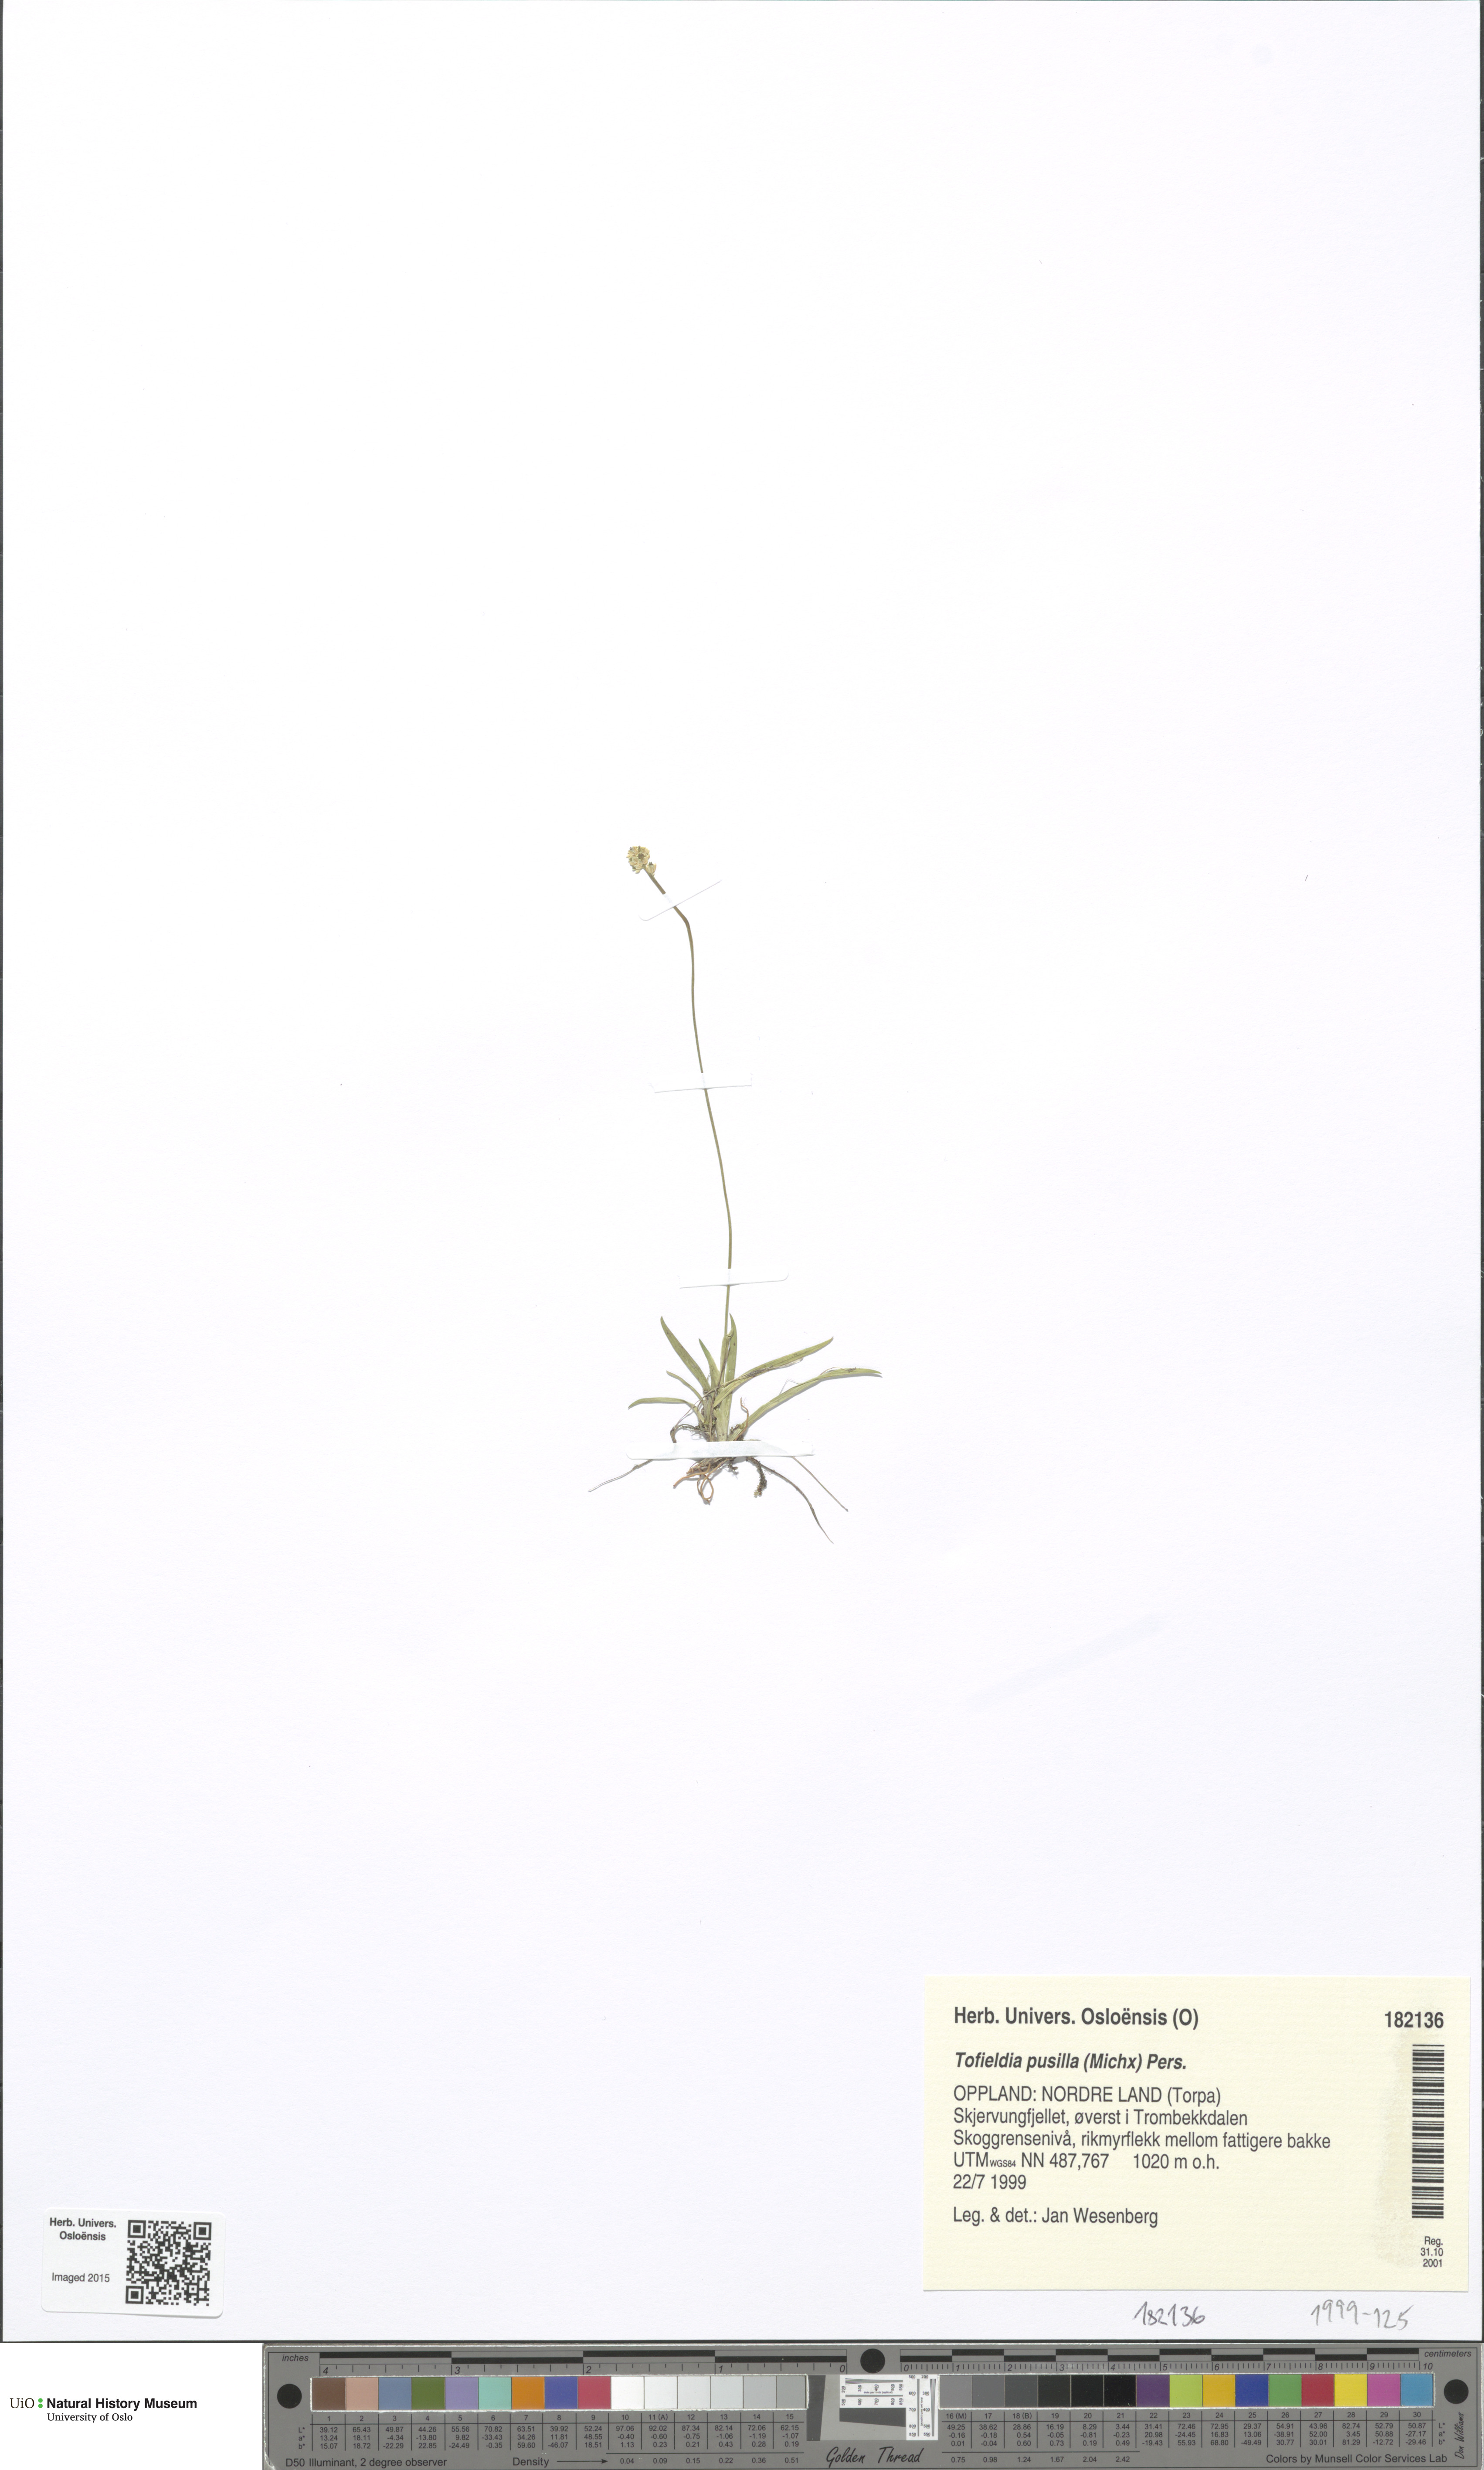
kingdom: Plantae
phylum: Tracheophyta
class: Liliopsida
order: Alismatales
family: Tofieldiaceae
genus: Tofieldia
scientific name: Tofieldia pusilla
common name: Scottish false asphodel
